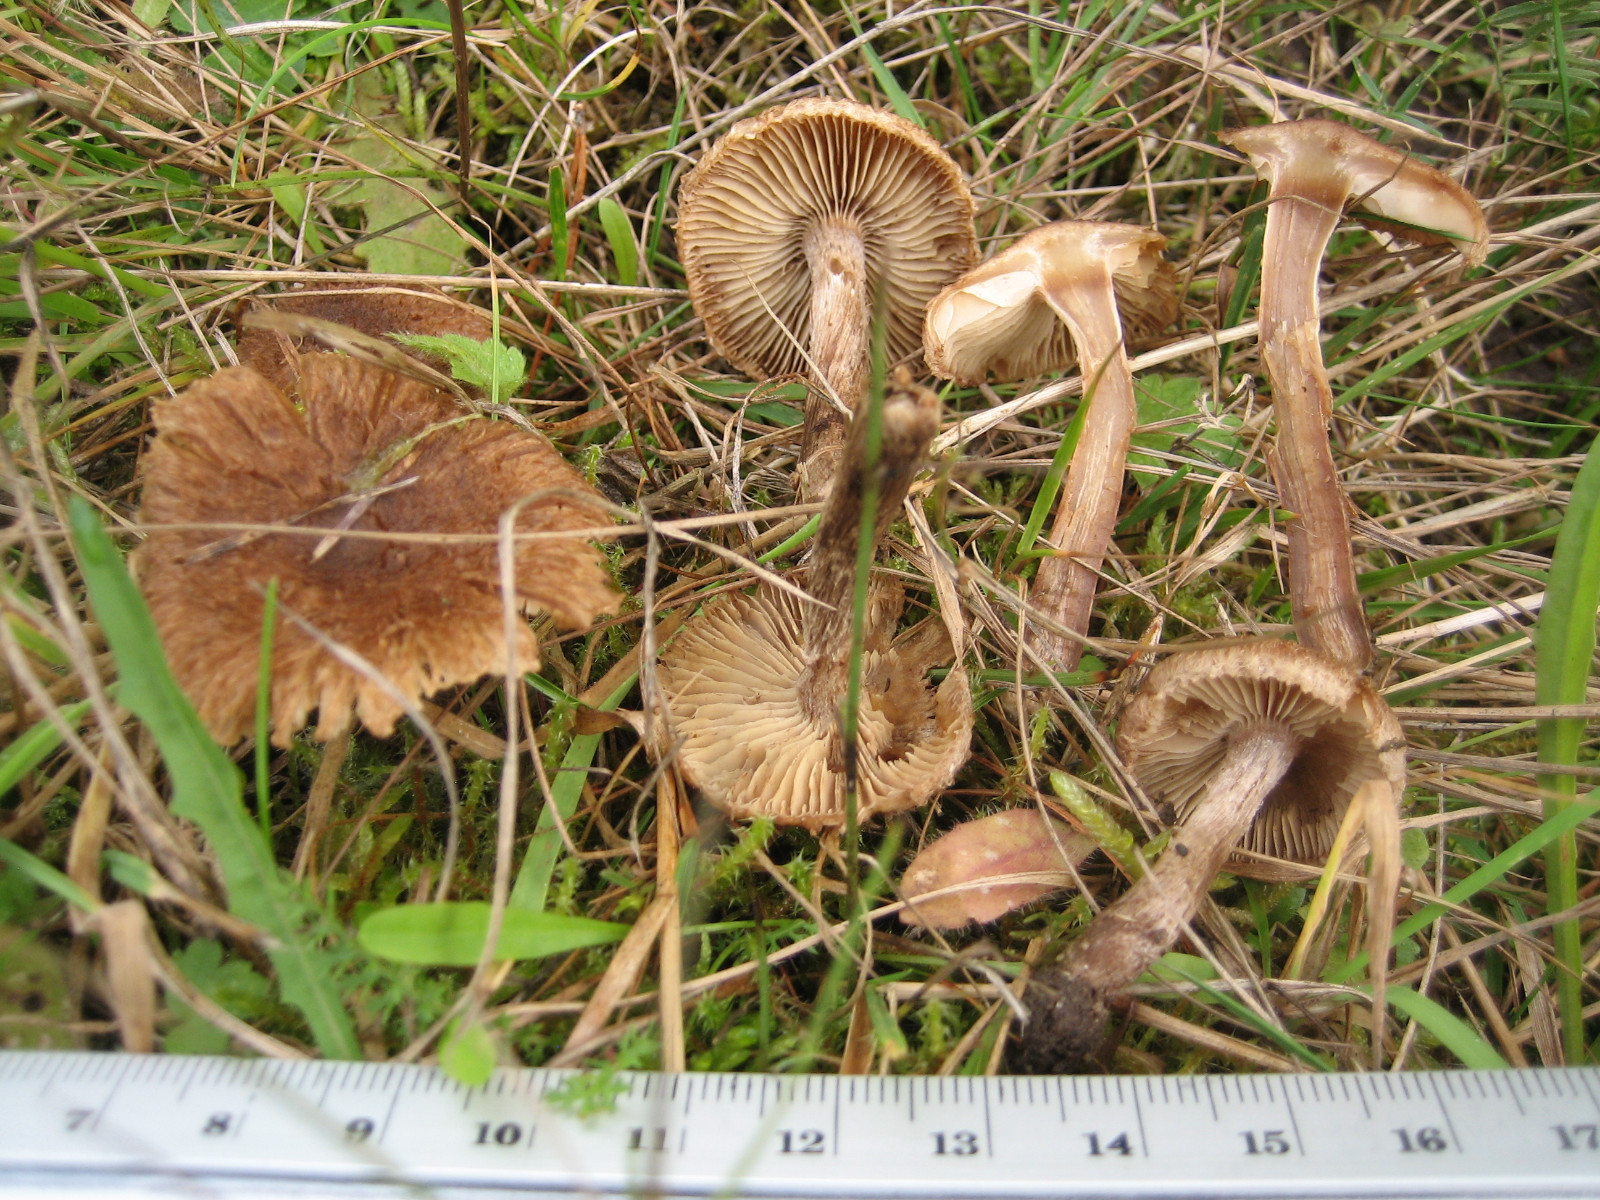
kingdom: Fungi
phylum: Basidiomycota
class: Agaricomycetes
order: Agaricales
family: Inocybaceae
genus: Inocybe
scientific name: Inocybe moravica
